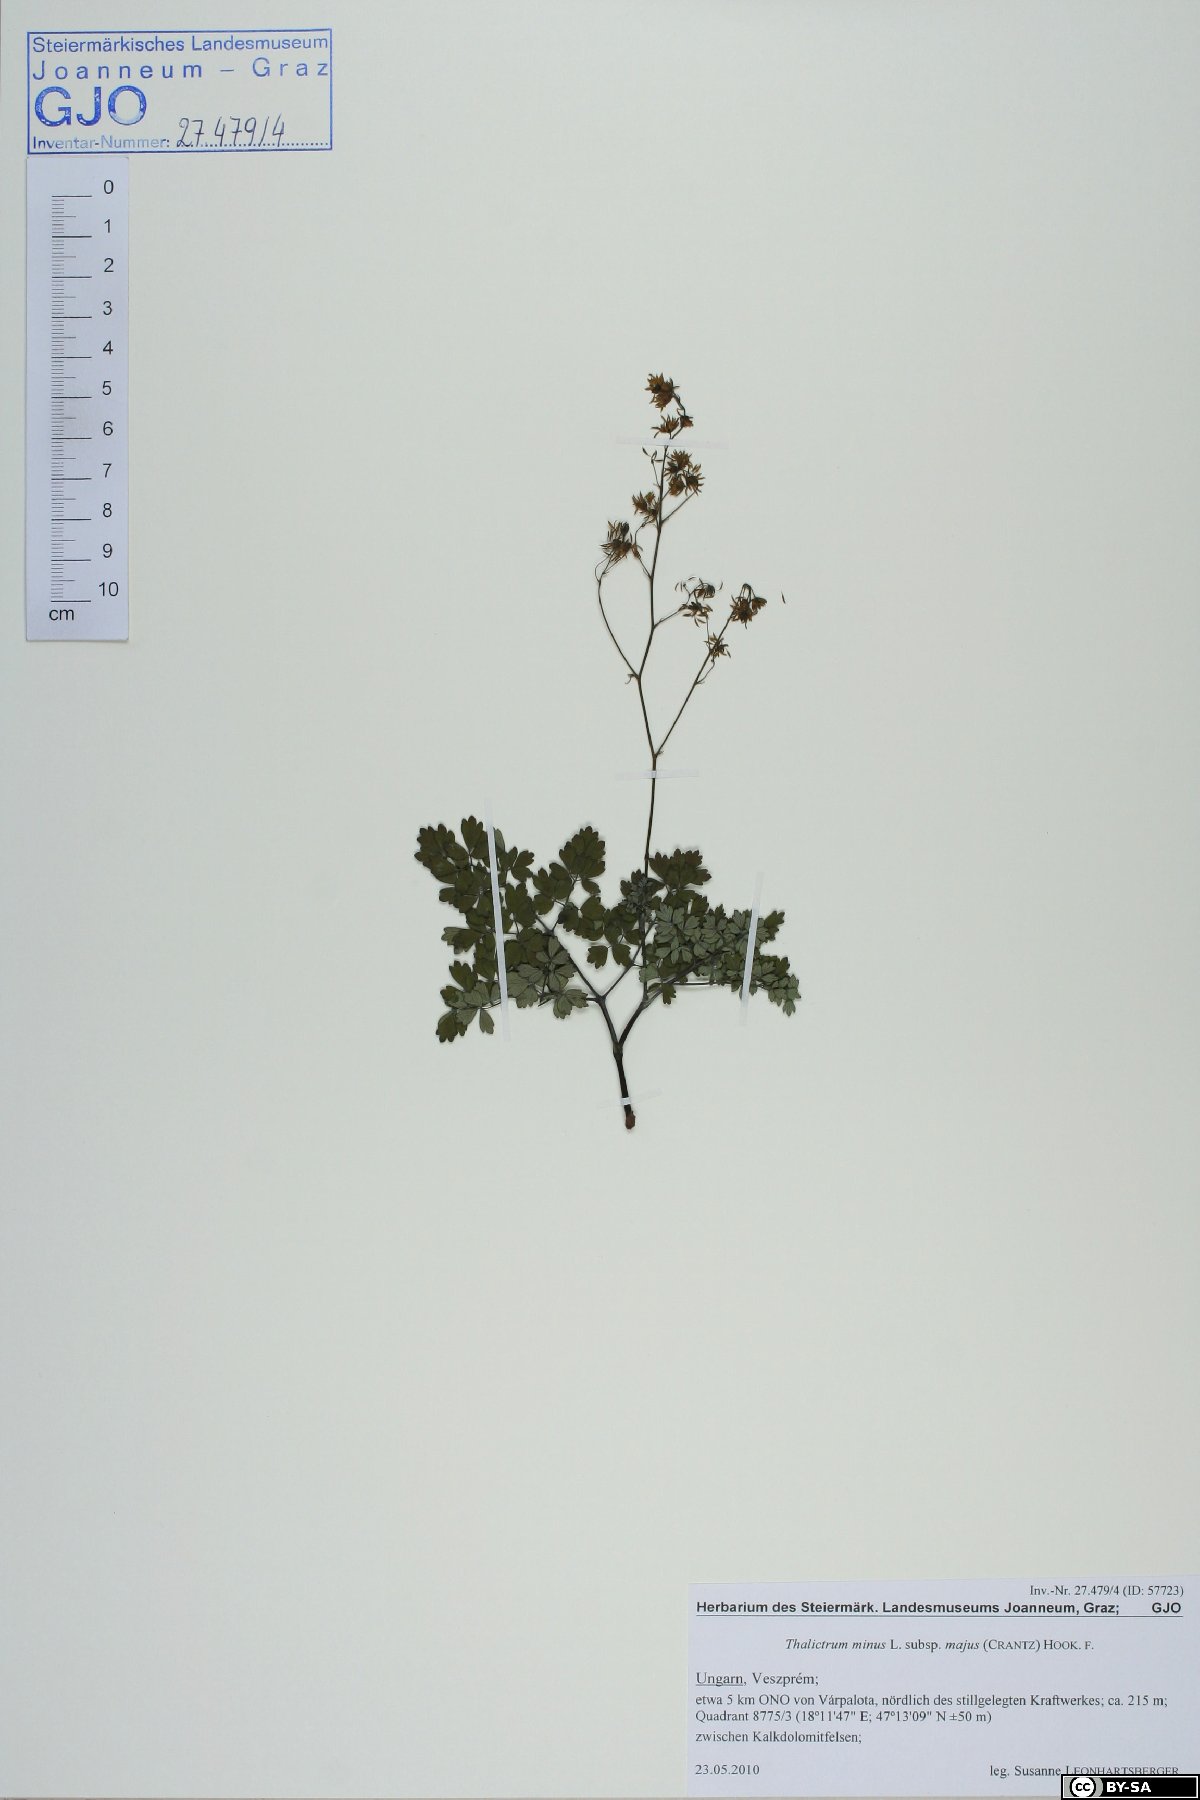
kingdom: Plantae
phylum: Tracheophyta
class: Magnoliopsida
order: Ranunculales
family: Ranunculaceae
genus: Thalictrum
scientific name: Thalictrum minus
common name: Lesser meadow-rue
